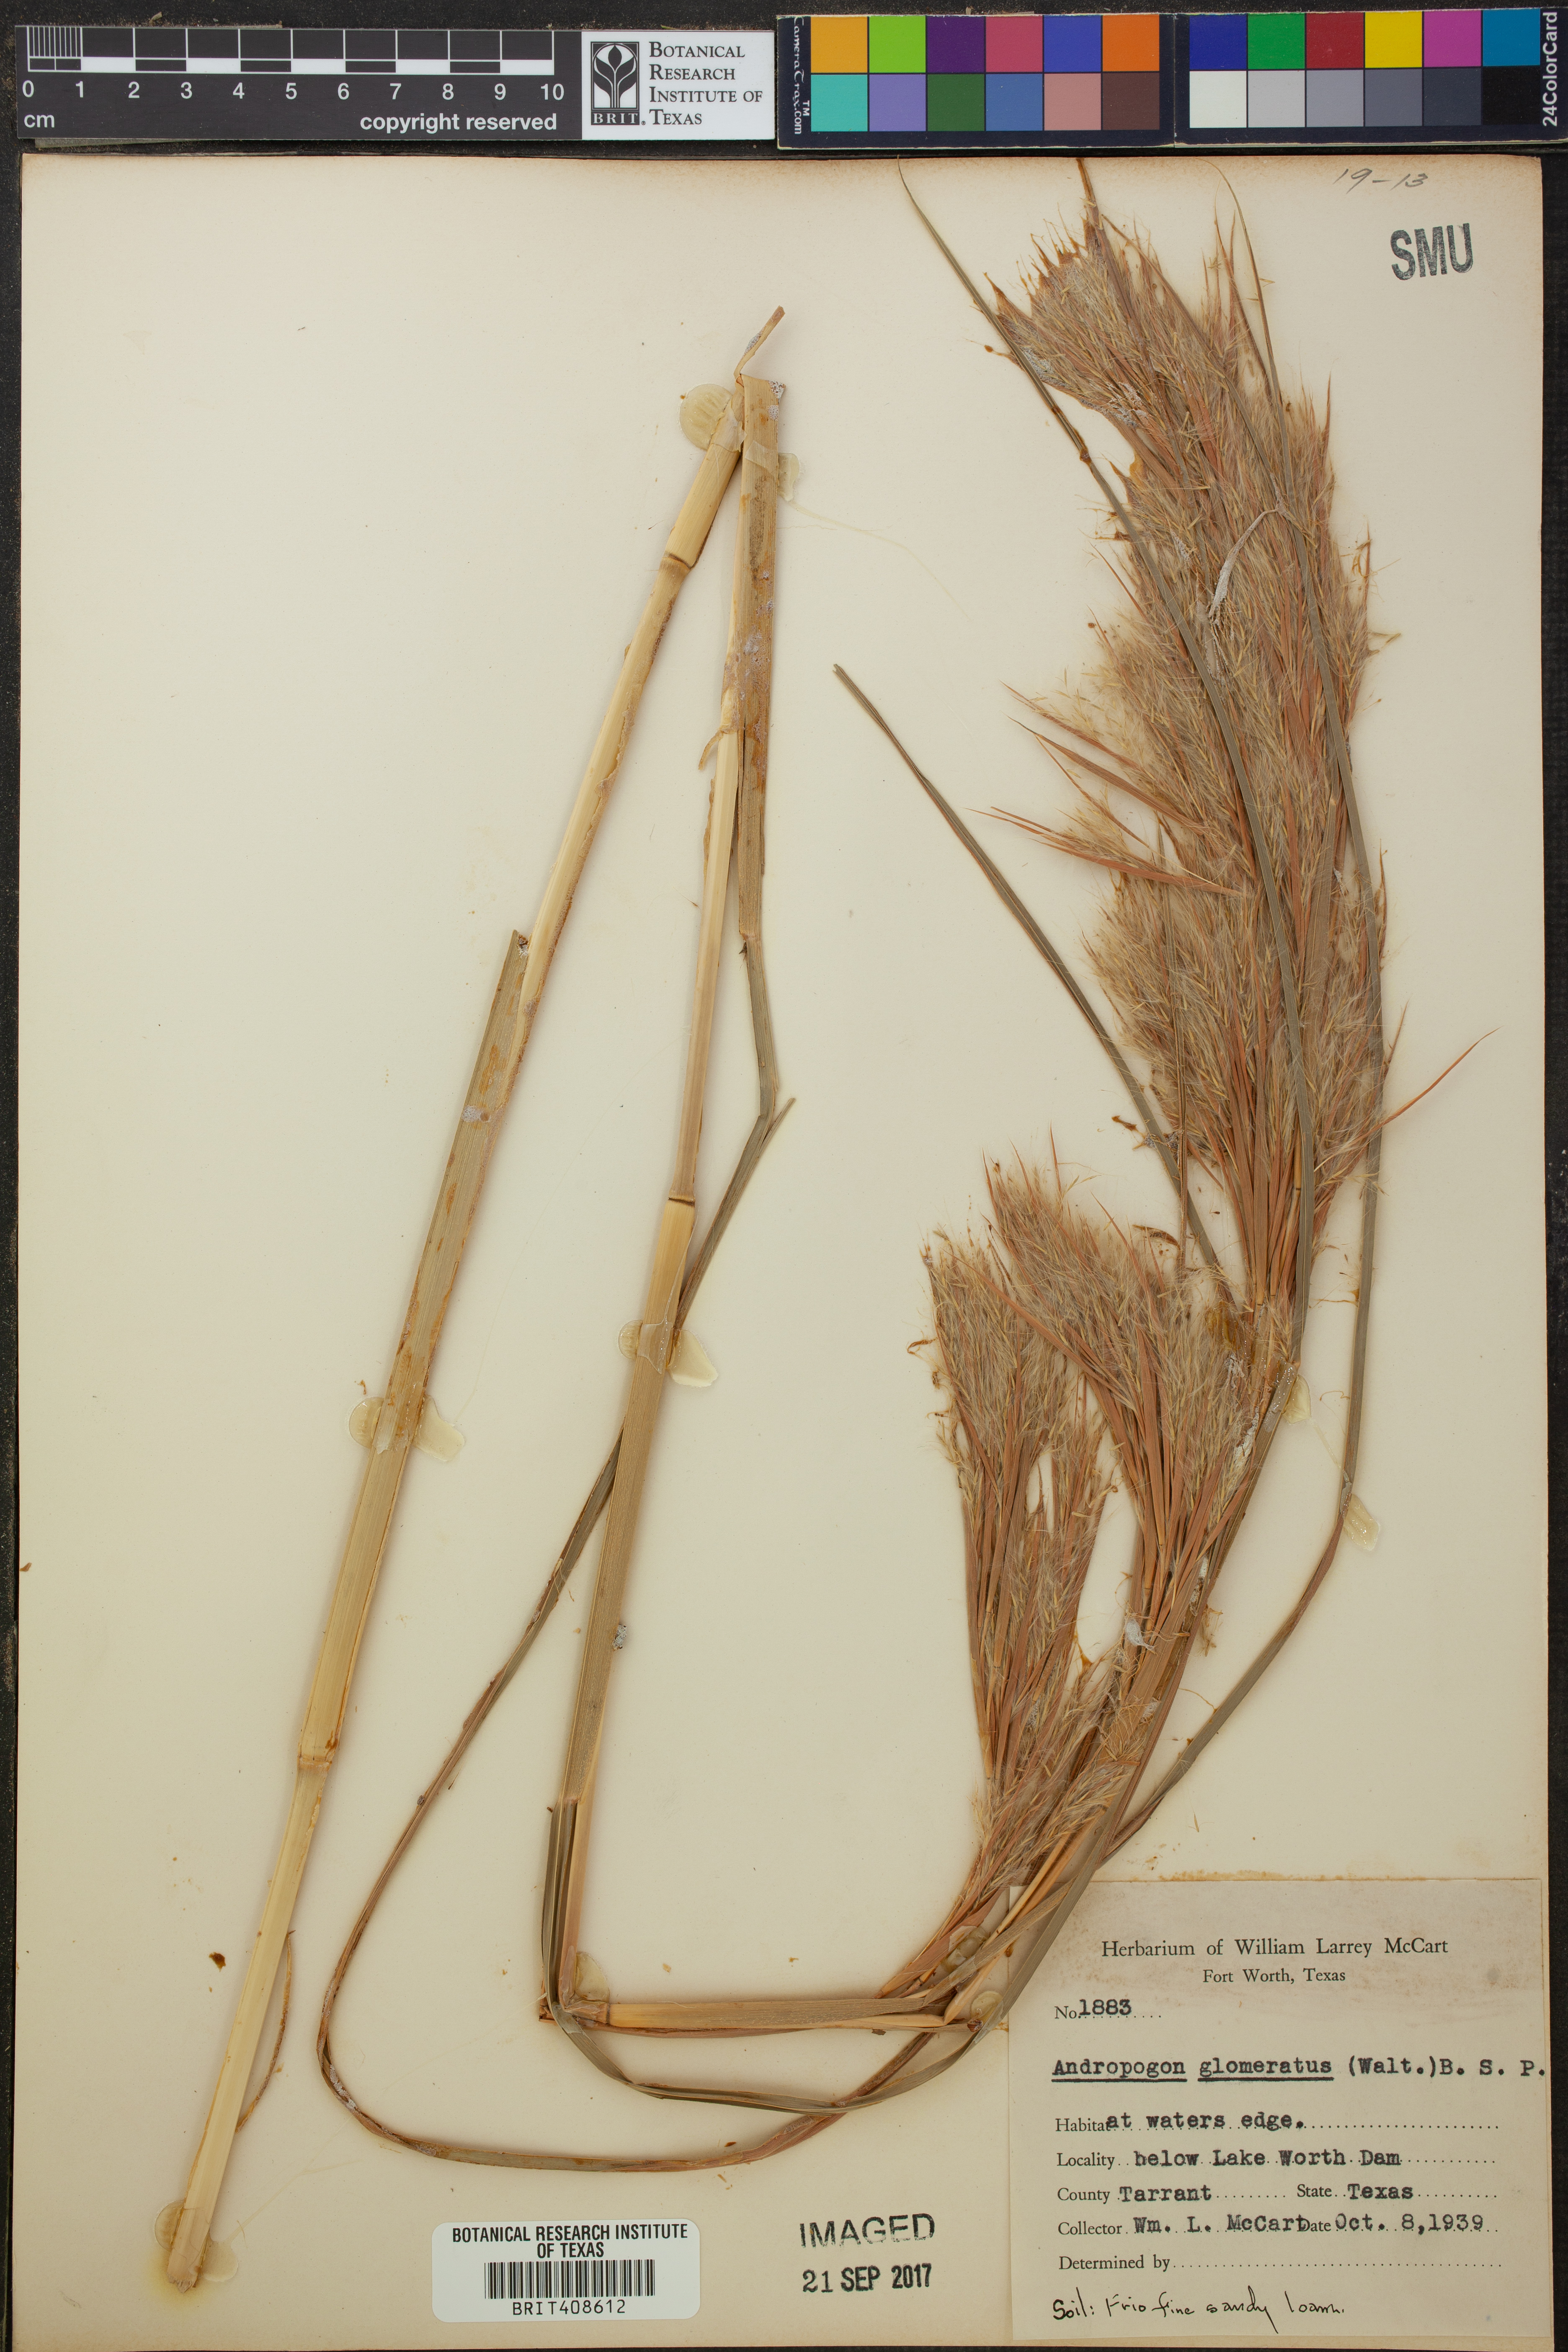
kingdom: Plantae
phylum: Tracheophyta
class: Liliopsida
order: Poales
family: Poaceae
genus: Andropogon
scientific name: Andropogon glomeratus
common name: Bushy beard grass
